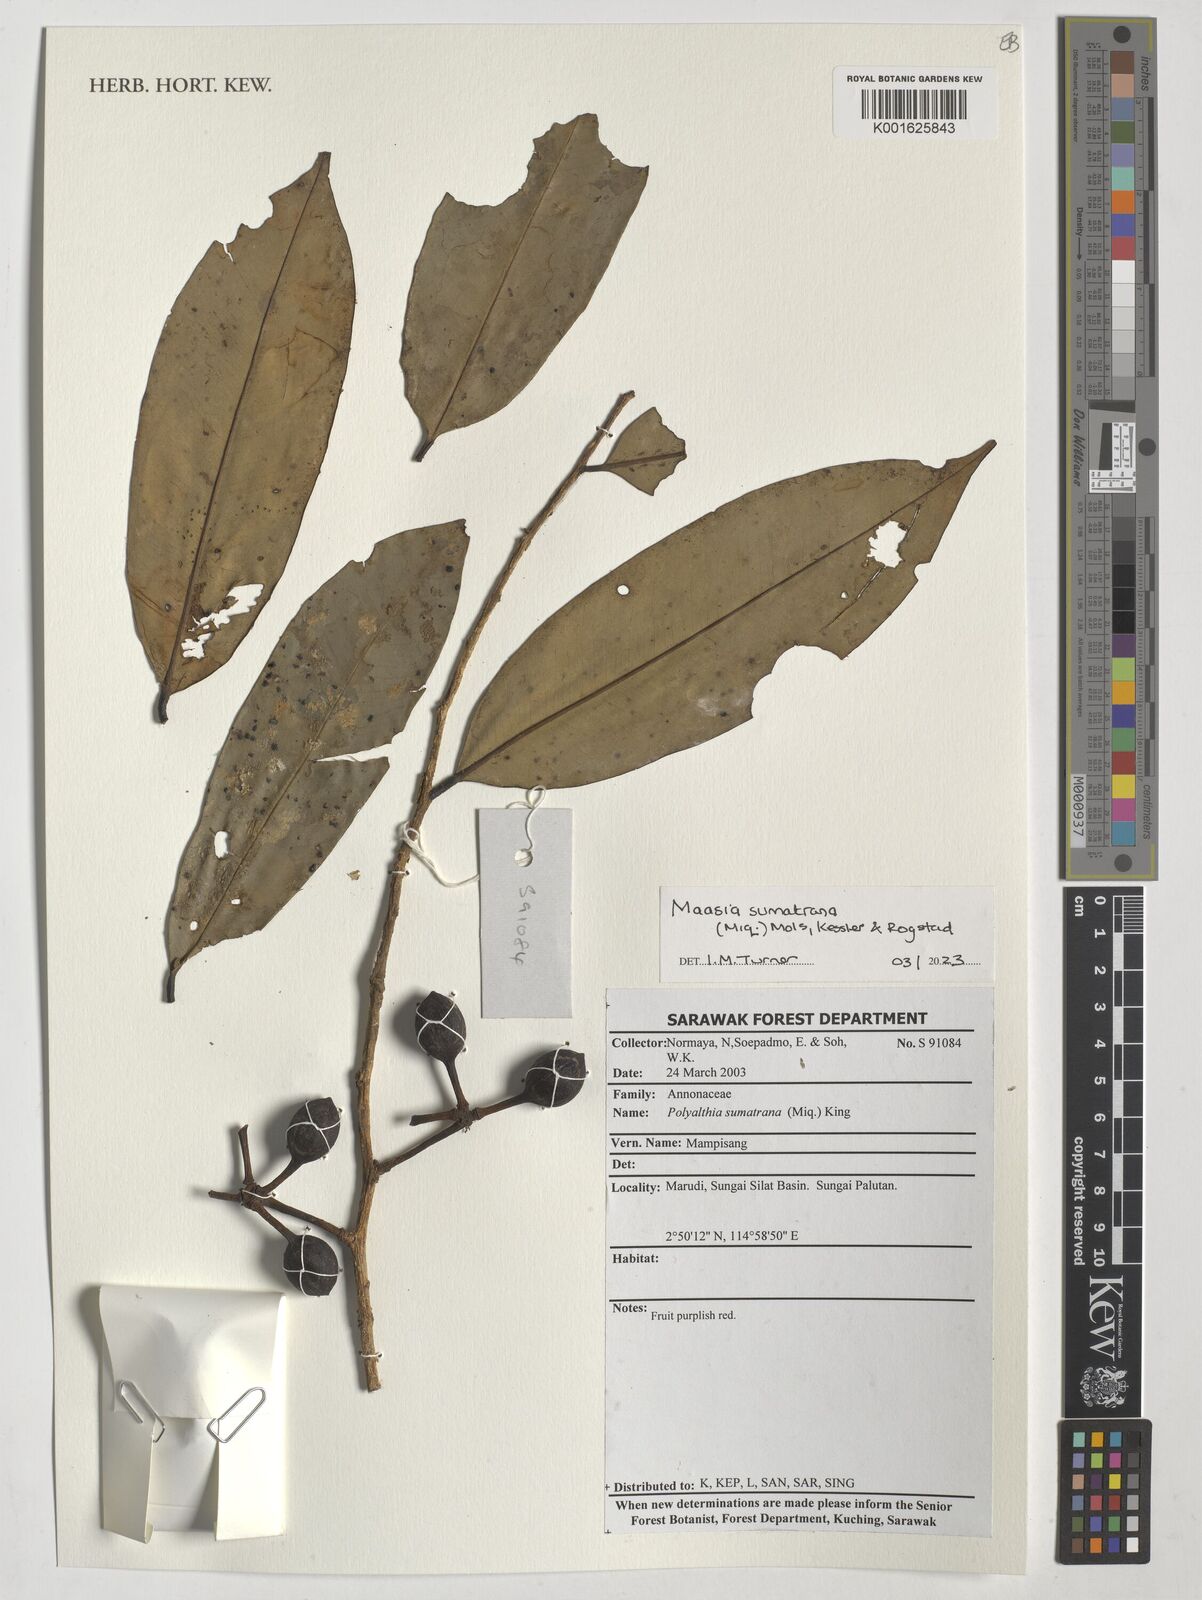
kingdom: Plantae
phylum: Tracheophyta
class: Magnoliopsida
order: Magnoliales
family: Annonaceae
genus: Maasia
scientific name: Maasia sumatrana
